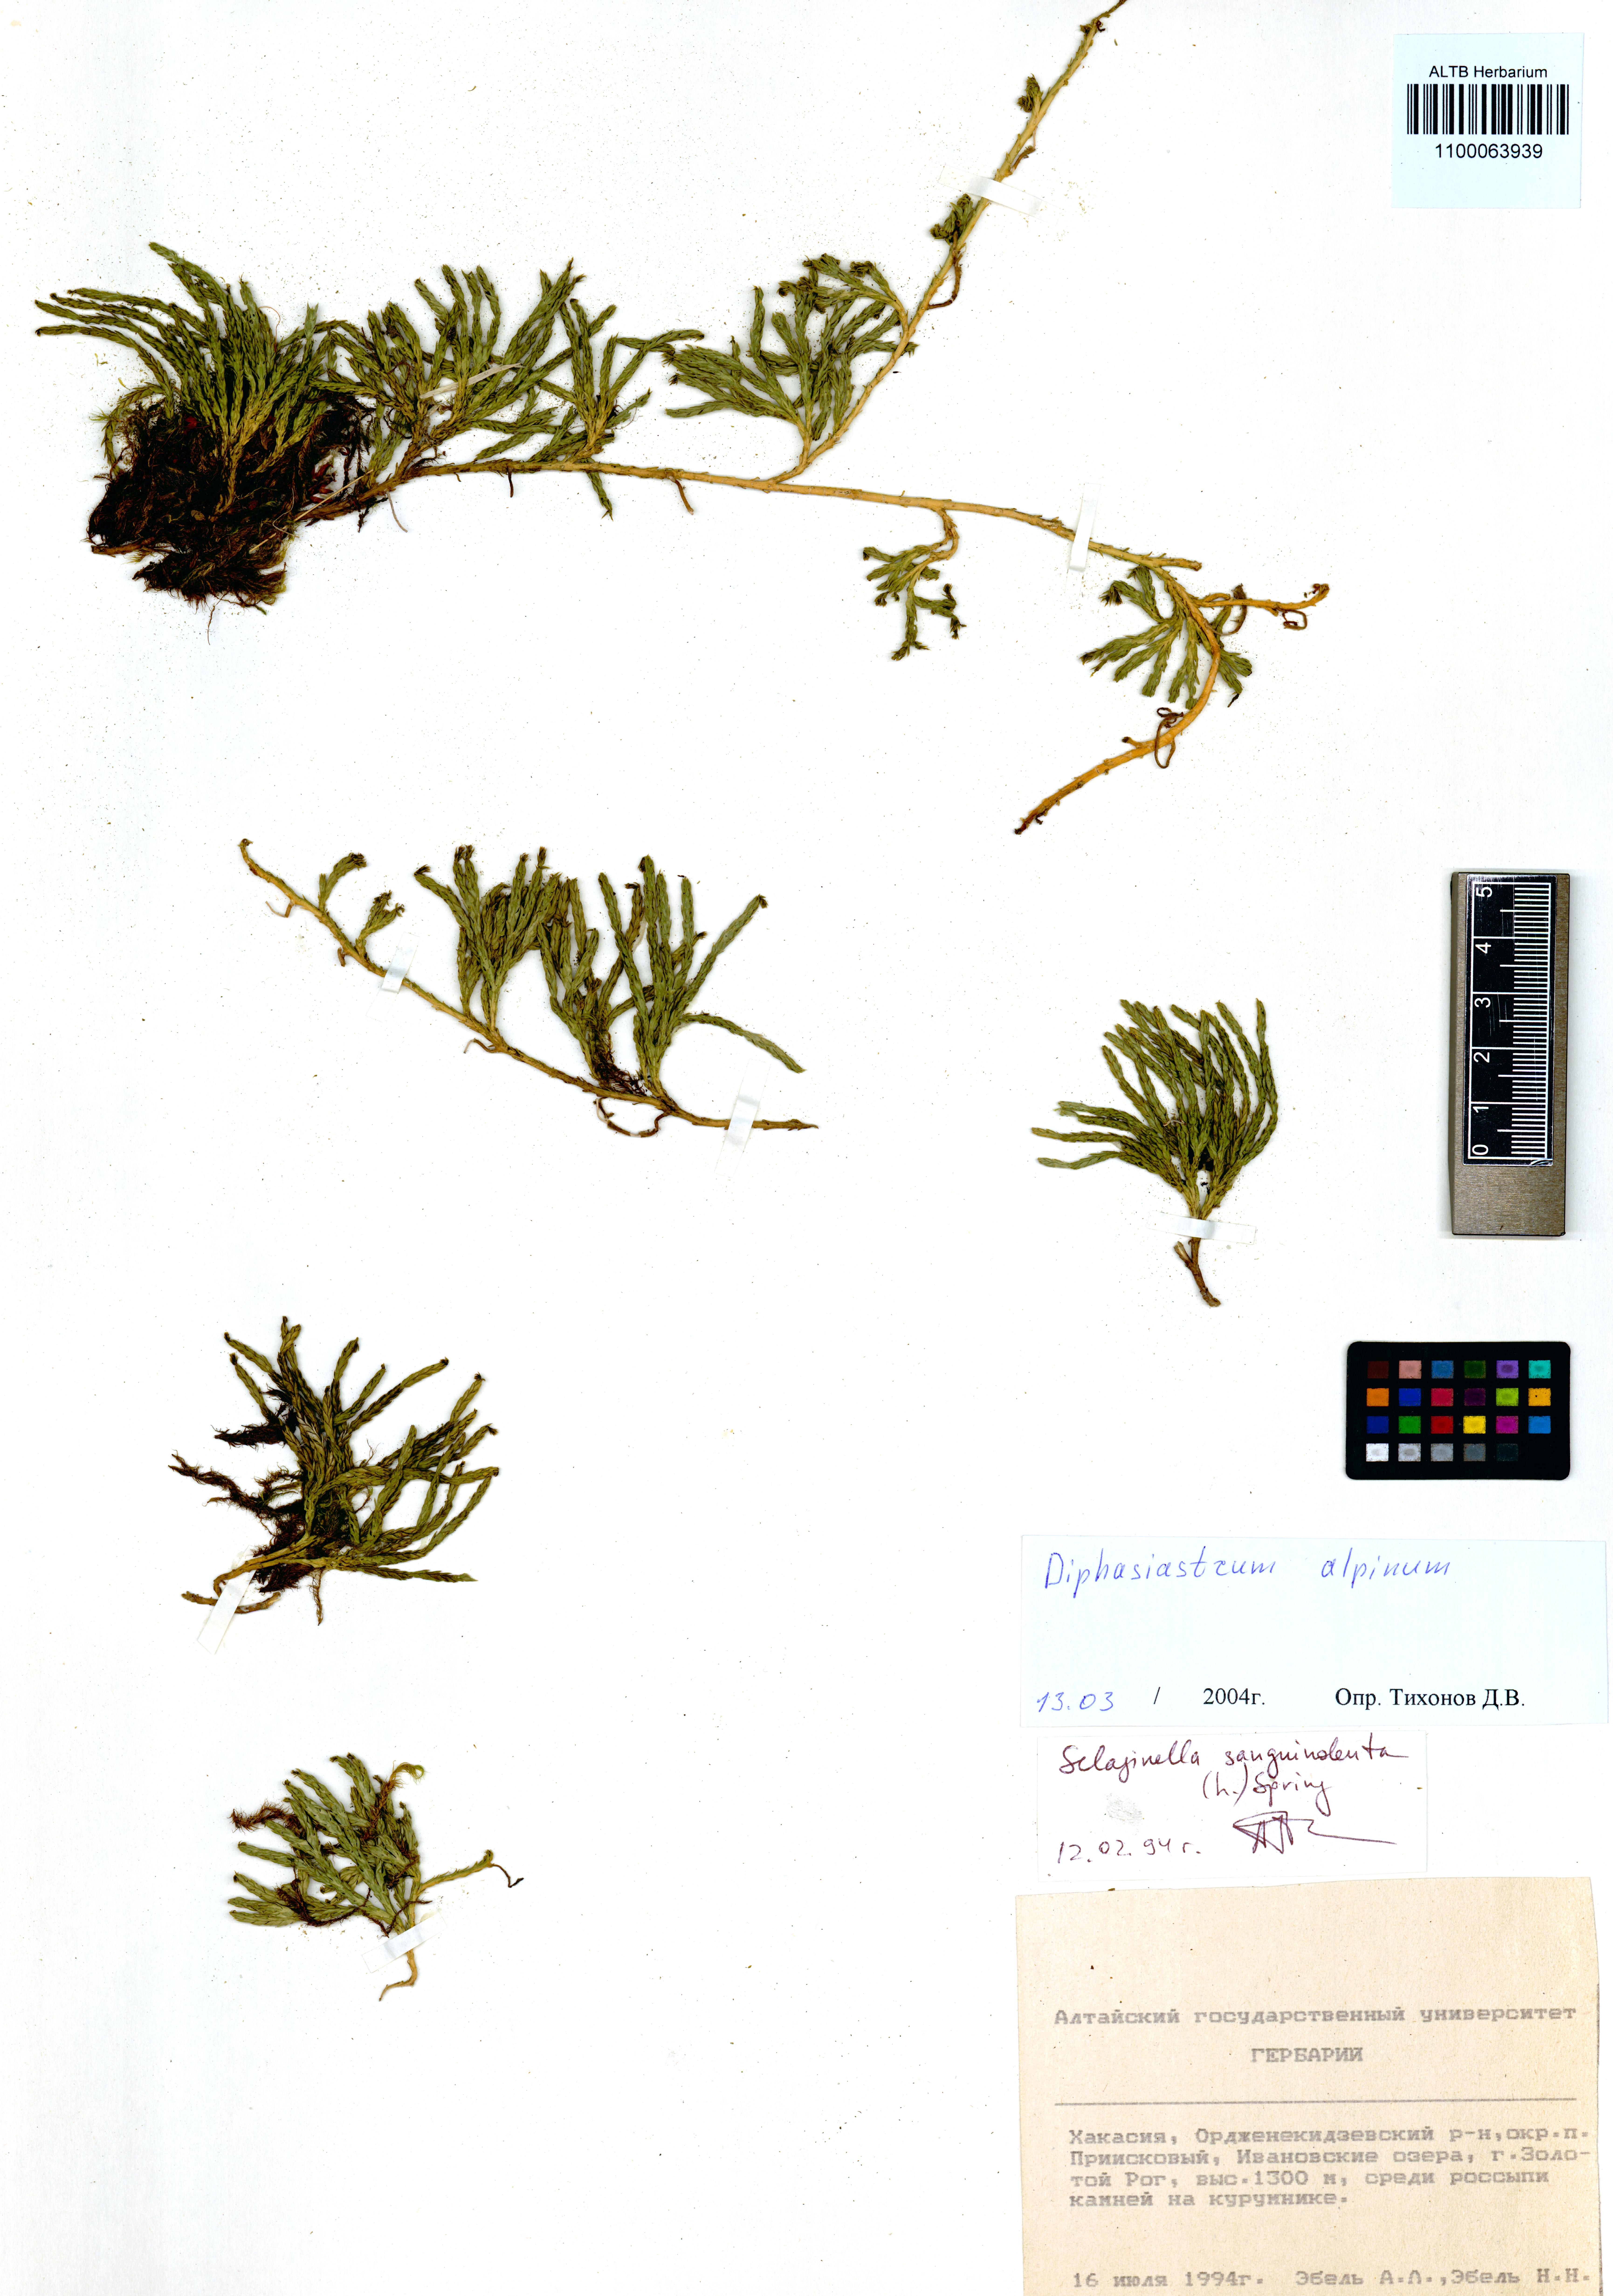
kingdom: Plantae
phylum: Tracheophyta
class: Lycopodiopsida
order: Lycopodiales
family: Lycopodiaceae
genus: Diphasiastrum
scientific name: Diphasiastrum alpinum
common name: Alpine clubmoss
